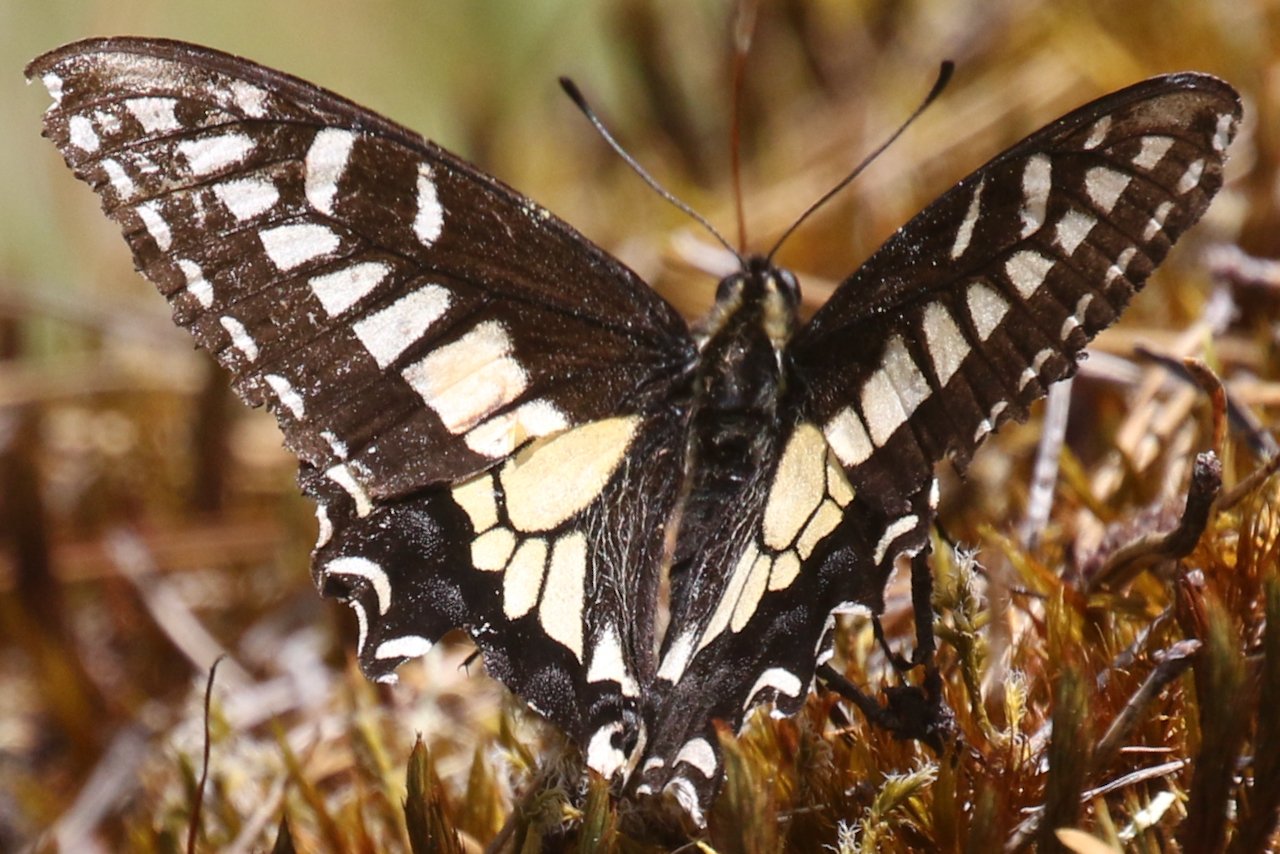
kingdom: Animalia
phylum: Arthropoda
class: Insecta
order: Lepidoptera
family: Papilionidae
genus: Papilio
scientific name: Papilio zelicaon
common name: Anise Swallowtail
